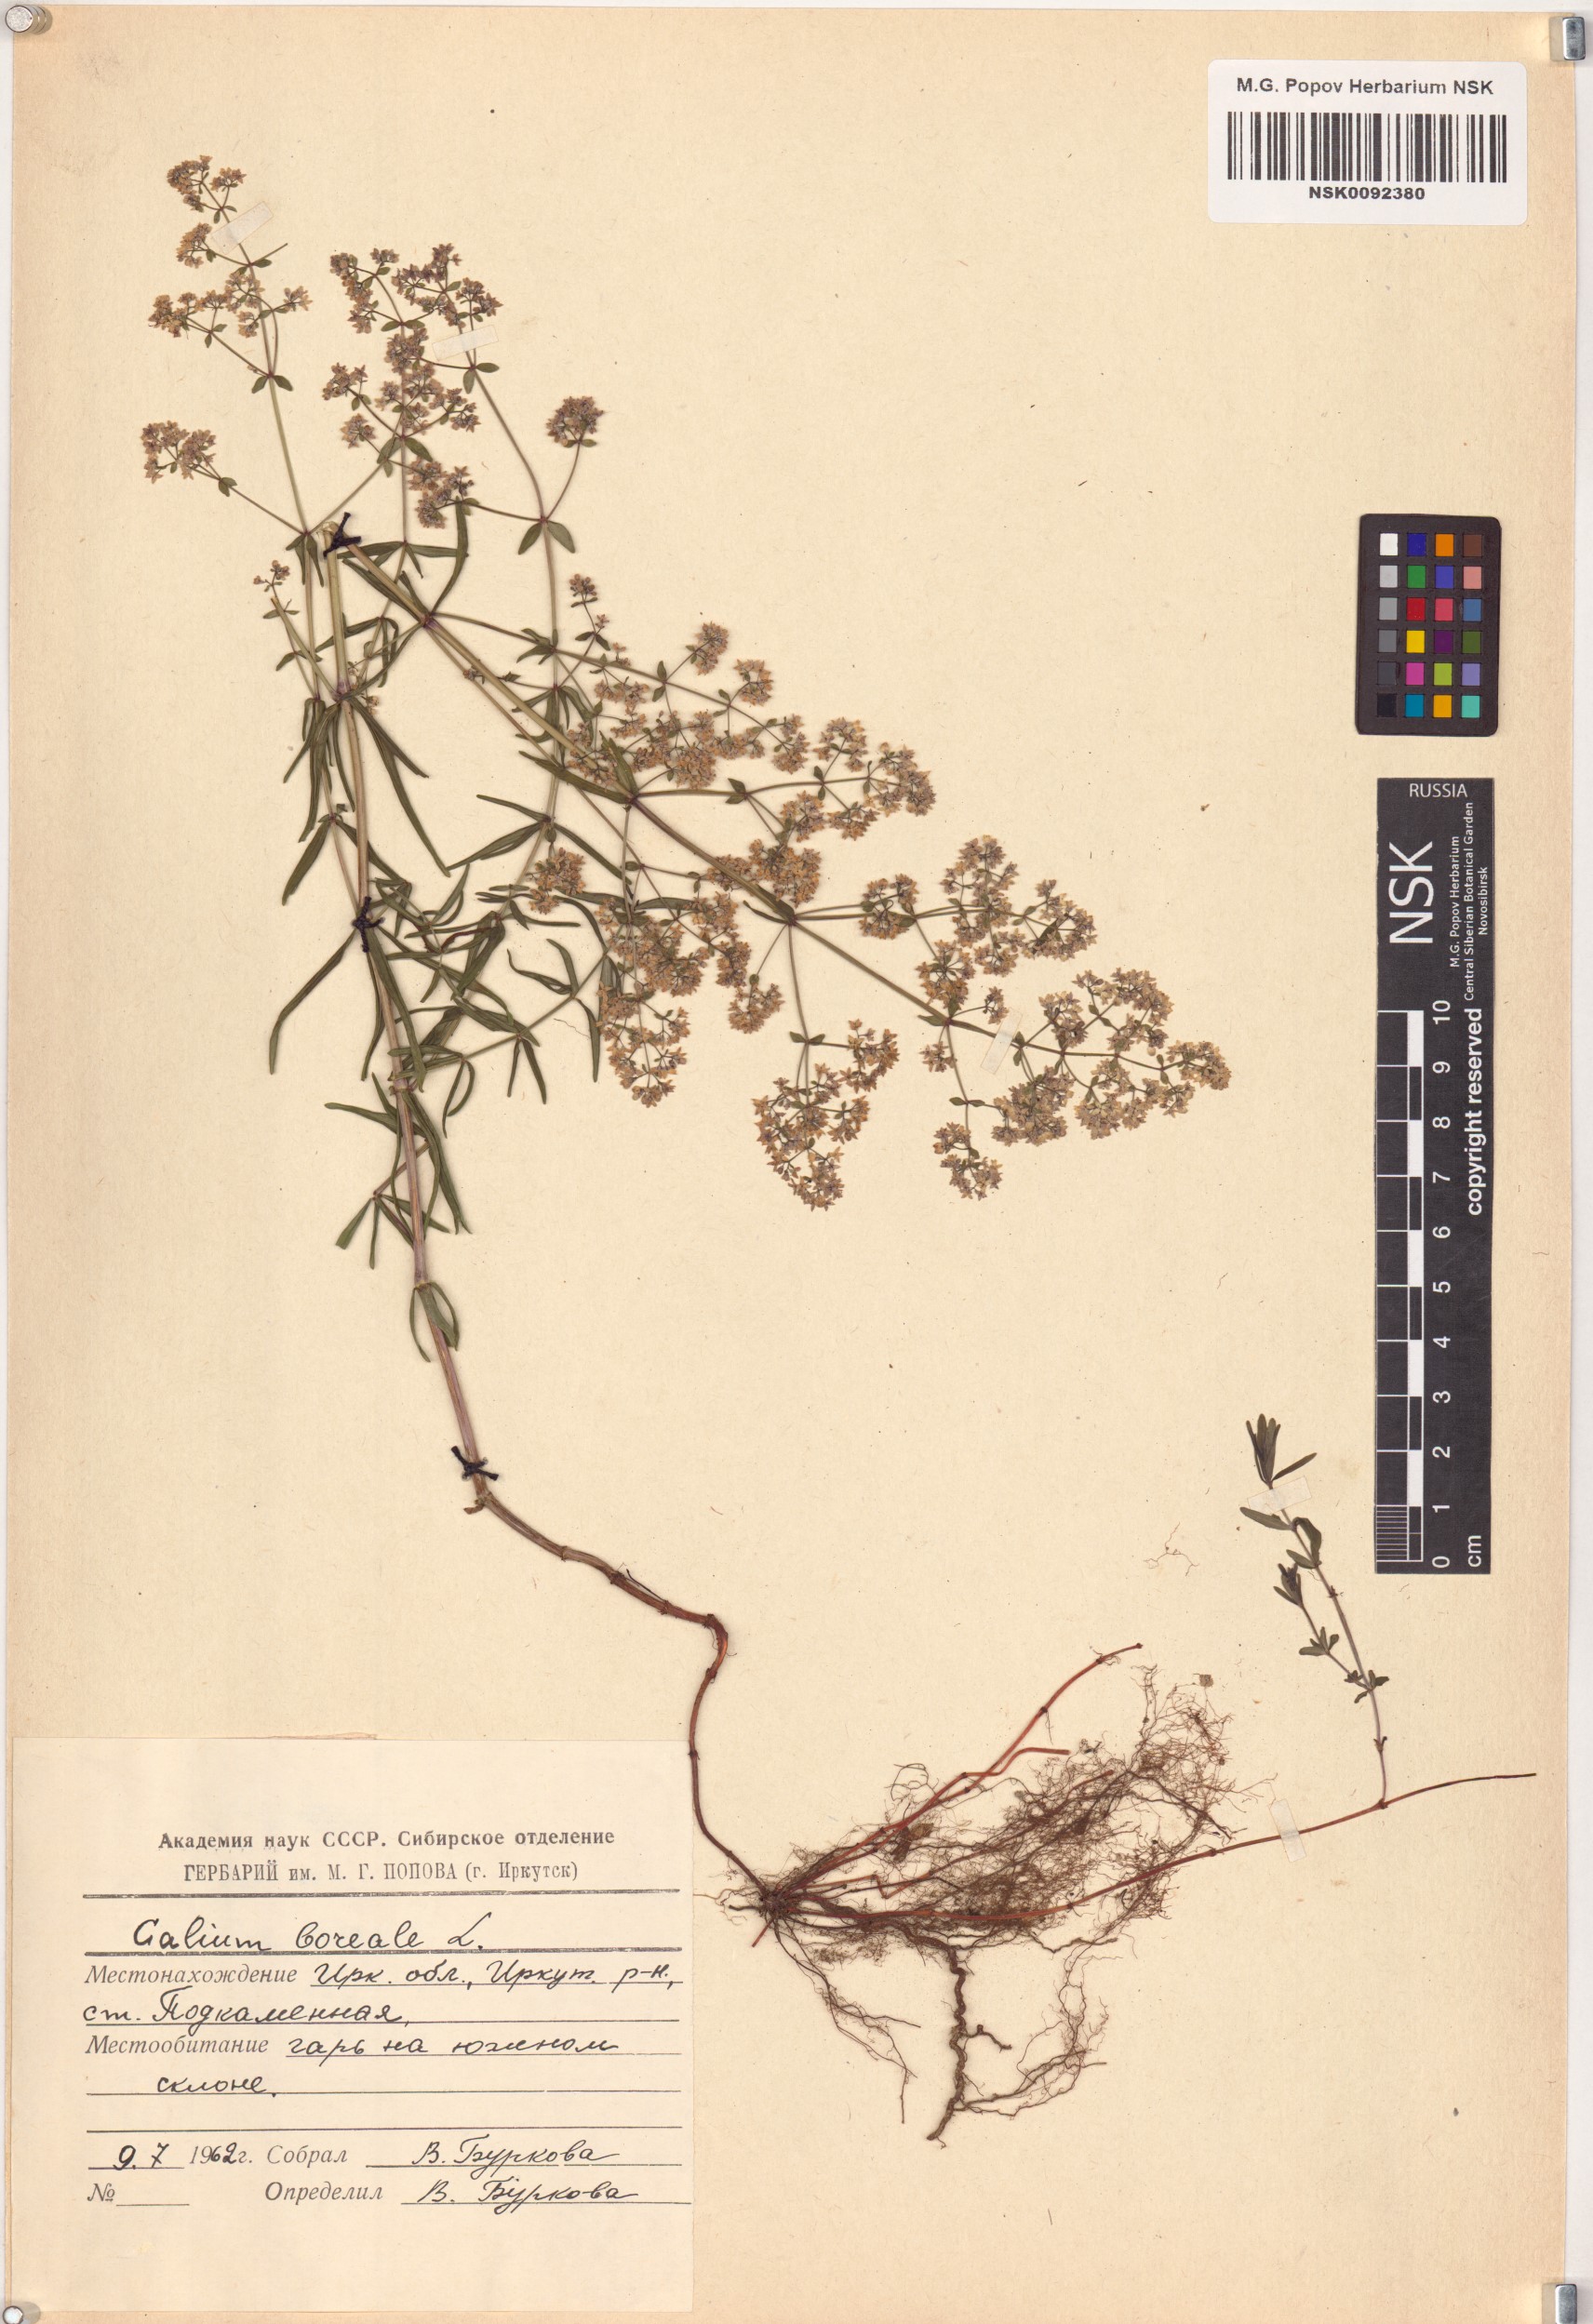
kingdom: Plantae
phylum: Tracheophyta
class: Magnoliopsida
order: Gentianales
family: Rubiaceae
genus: Galium
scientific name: Galium boreale
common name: Northern bedstraw
